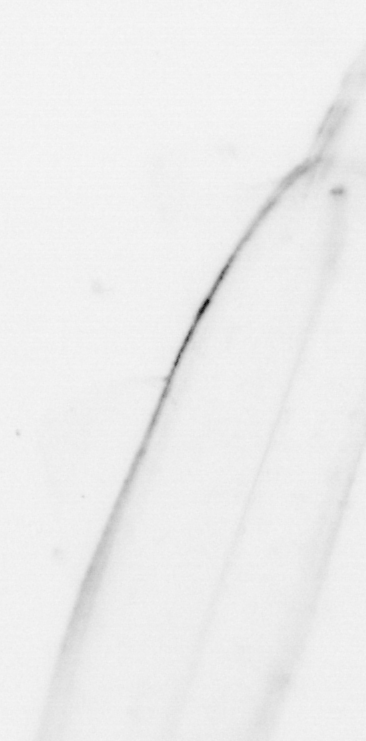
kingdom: Chromista
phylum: Ochrophyta
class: Bacillariophyceae
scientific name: Bacillariophyceae
